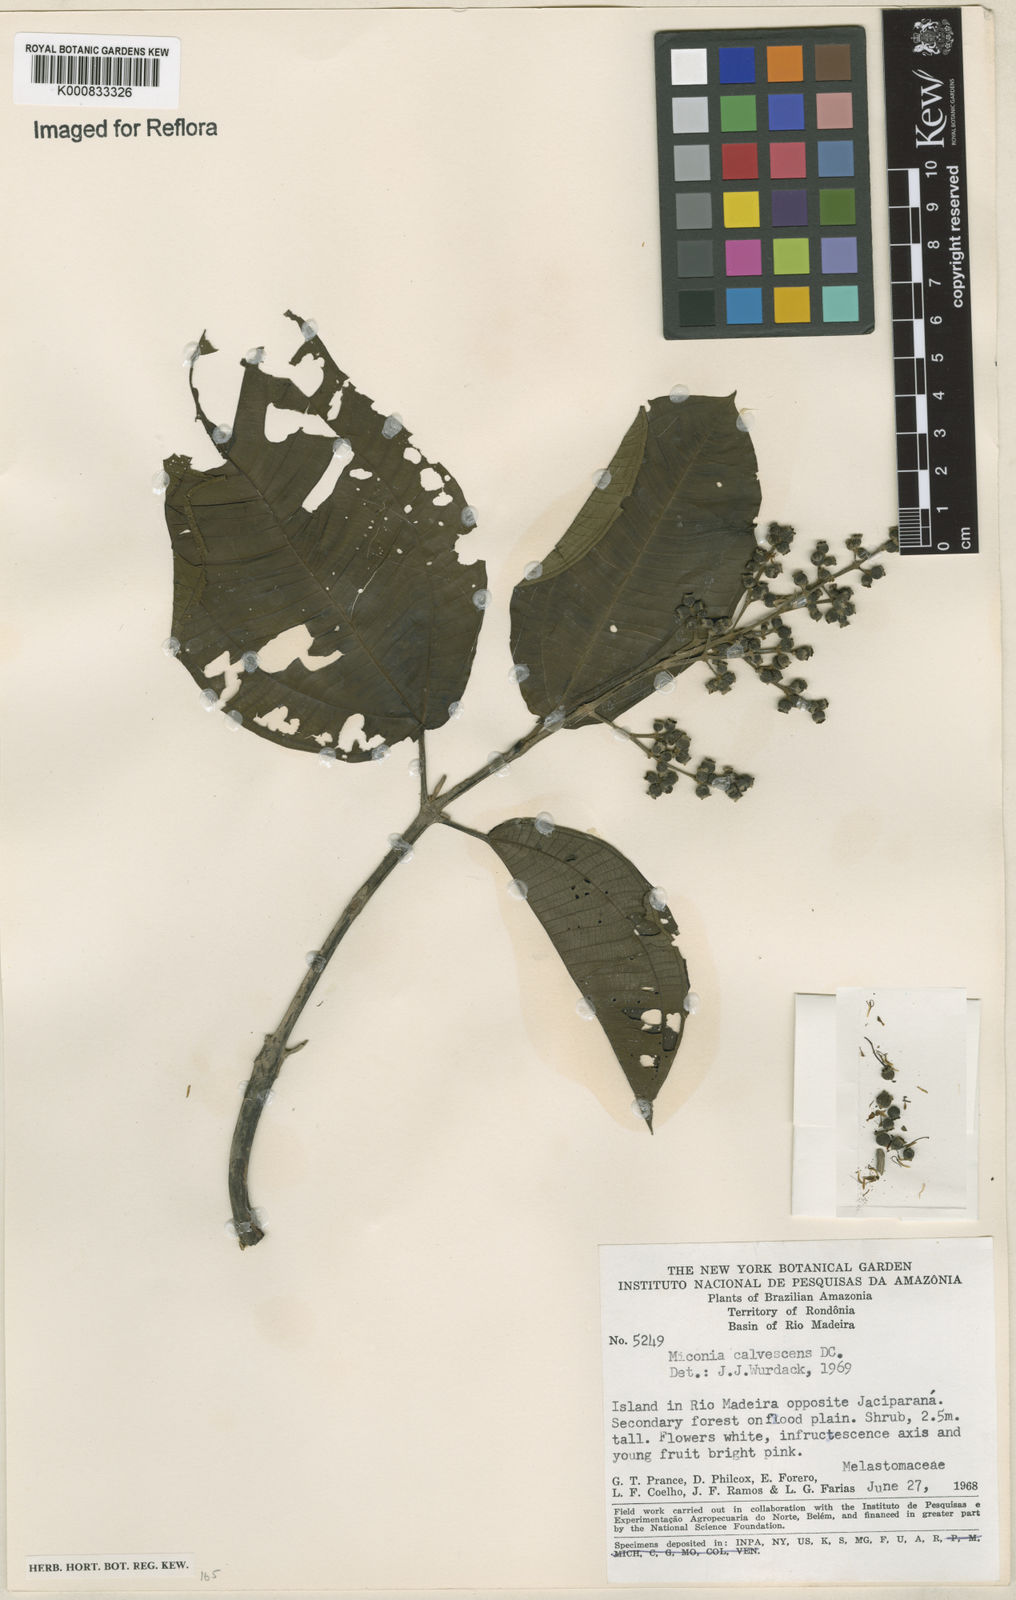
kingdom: Plantae
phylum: Tracheophyta
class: Magnoliopsida
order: Myrtales
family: Melastomataceae
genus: Miconia
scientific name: Miconia calvescens
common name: Purple plague
